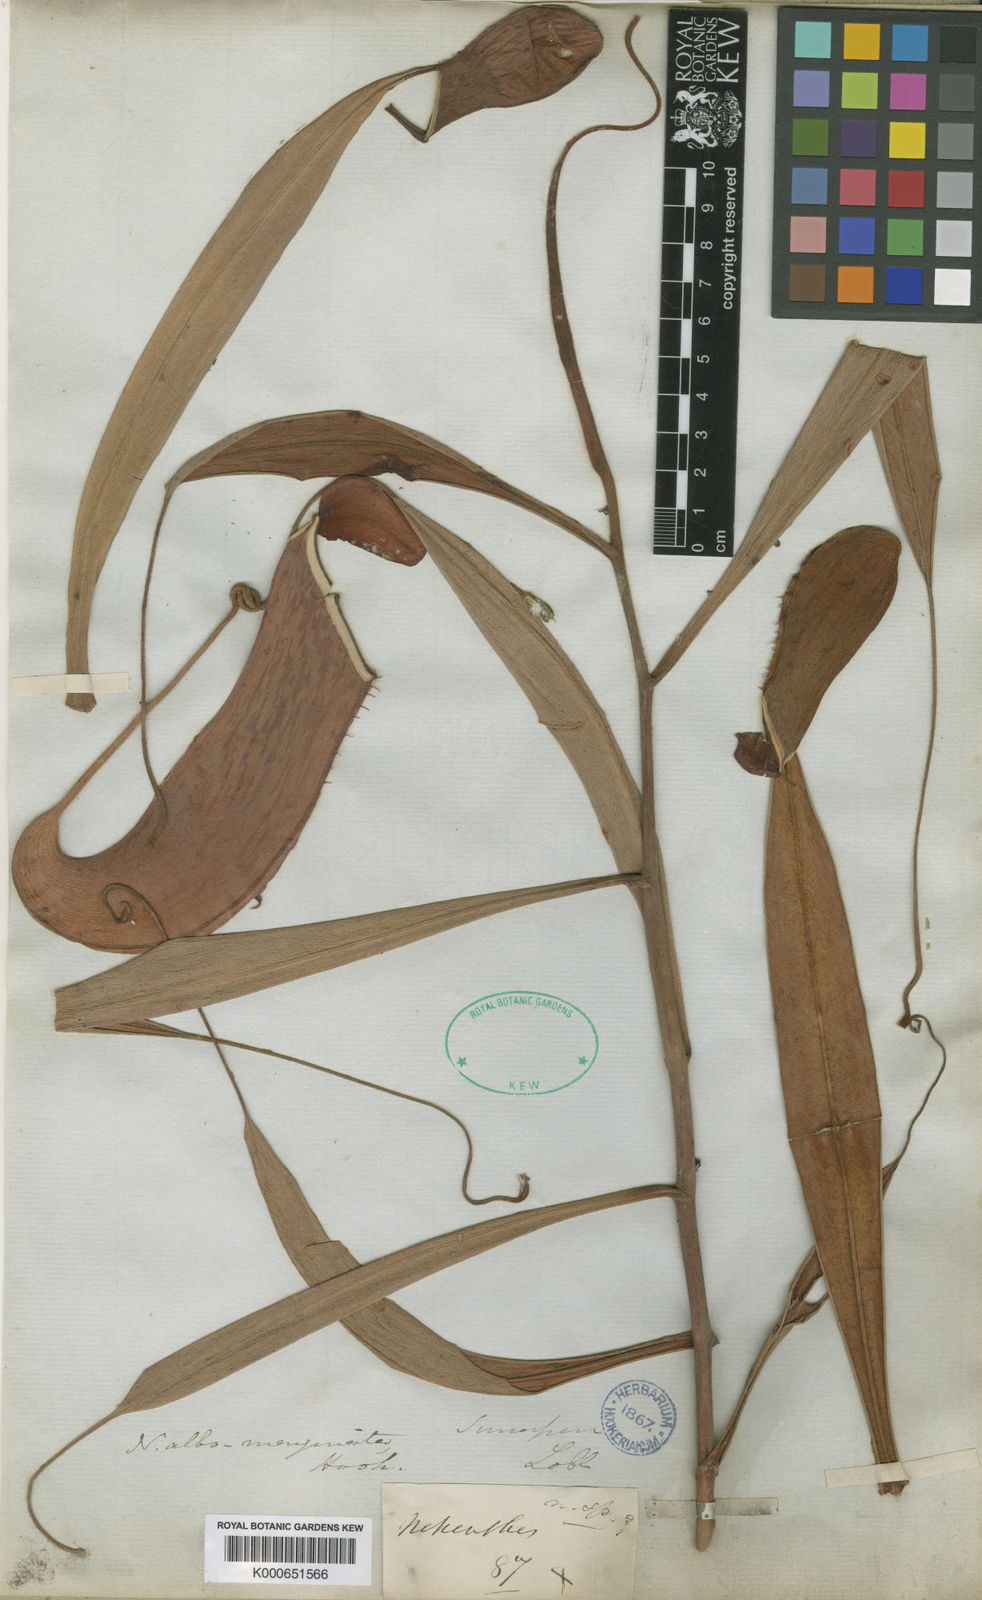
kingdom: Plantae
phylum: Tracheophyta
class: Magnoliopsida
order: Caryophyllales
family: Nepenthaceae
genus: Nepenthes
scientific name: Nepenthes
